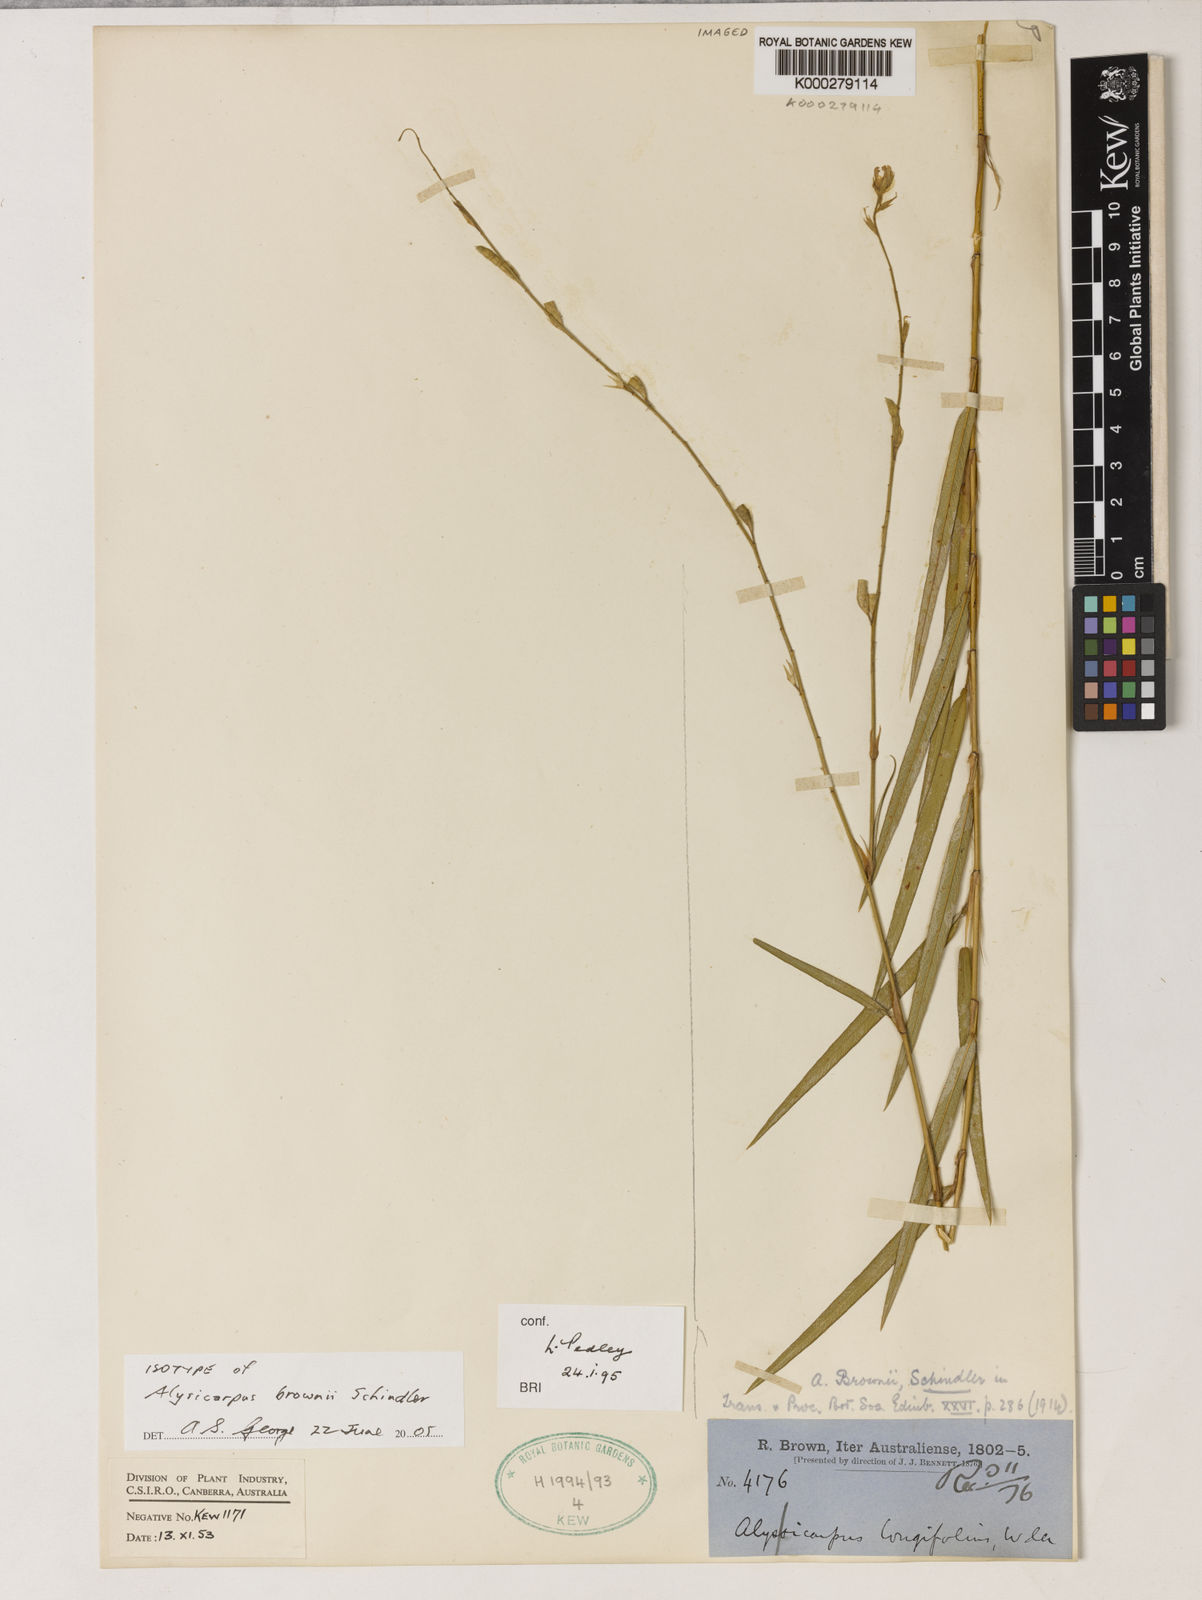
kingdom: Plantae
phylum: Tracheophyta
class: Magnoliopsida
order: Fabales
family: Fabaceae
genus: Alysicarpus
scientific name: Alysicarpus brownii
